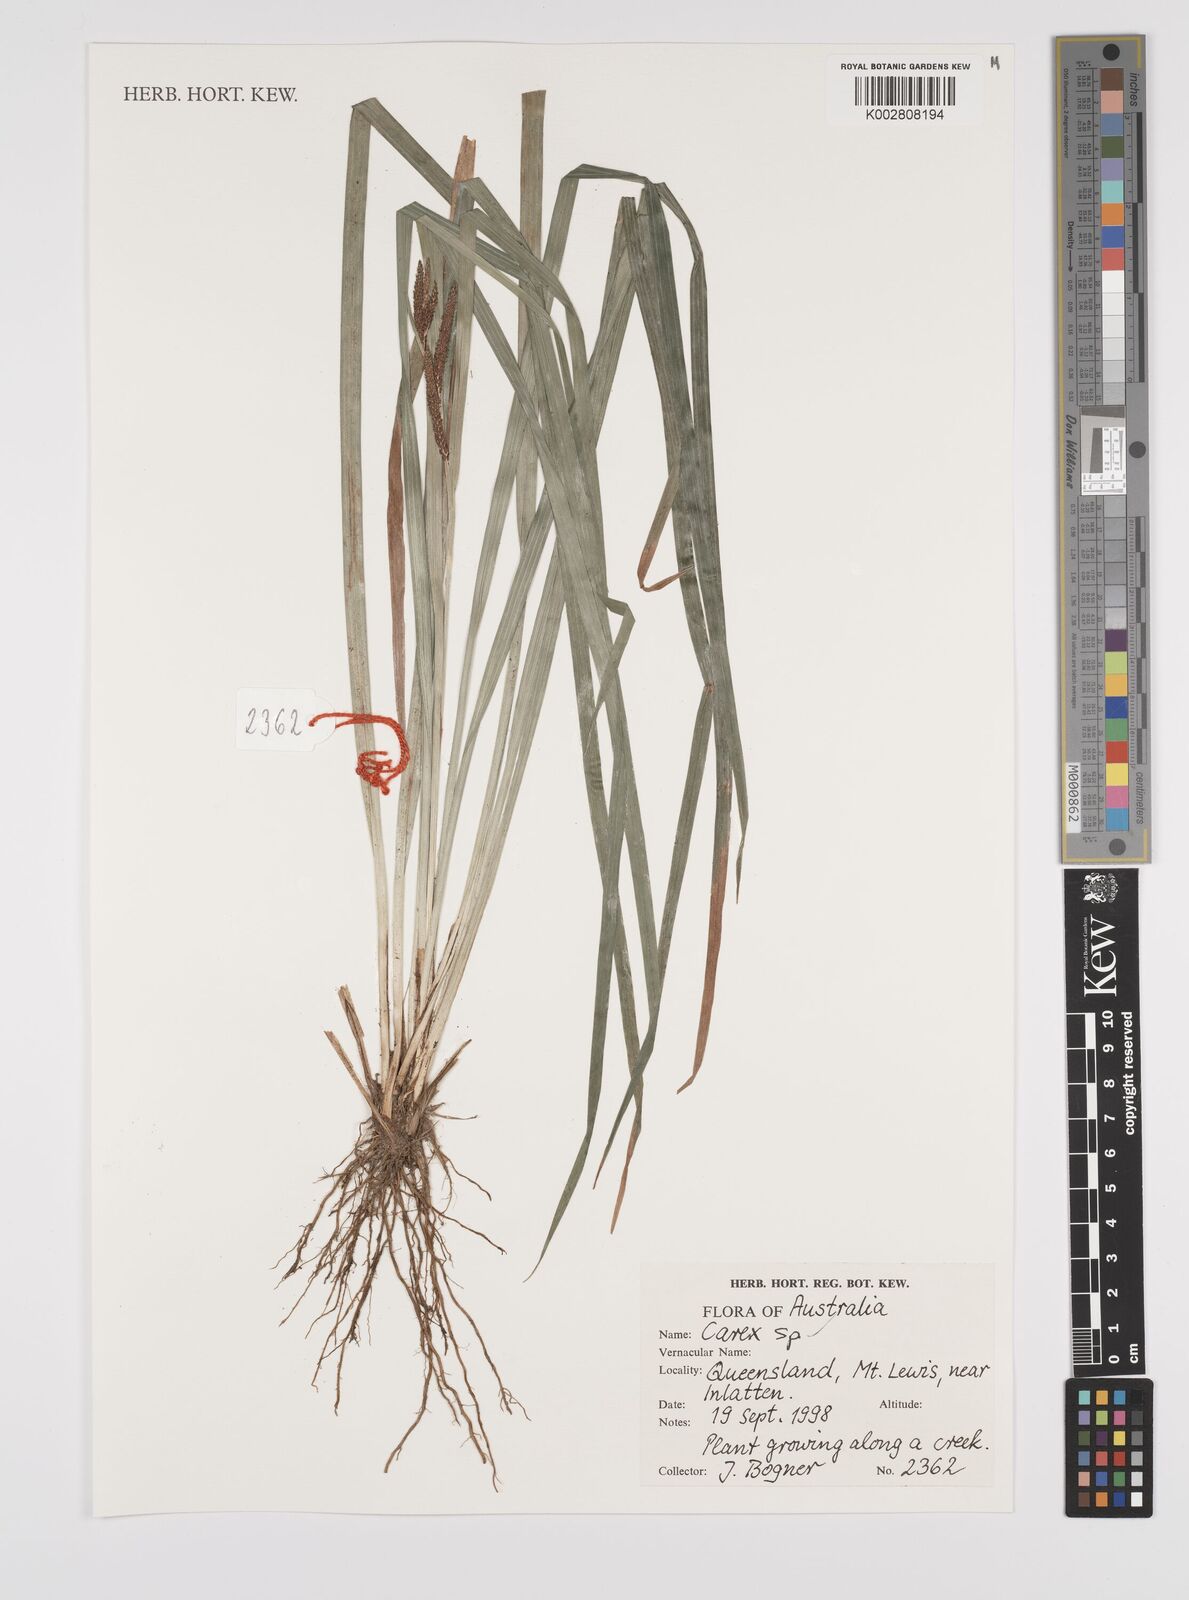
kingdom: Plantae
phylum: Tracheophyta
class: Liliopsida
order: Poales
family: Cyperaceae
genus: Carex
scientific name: Carex
